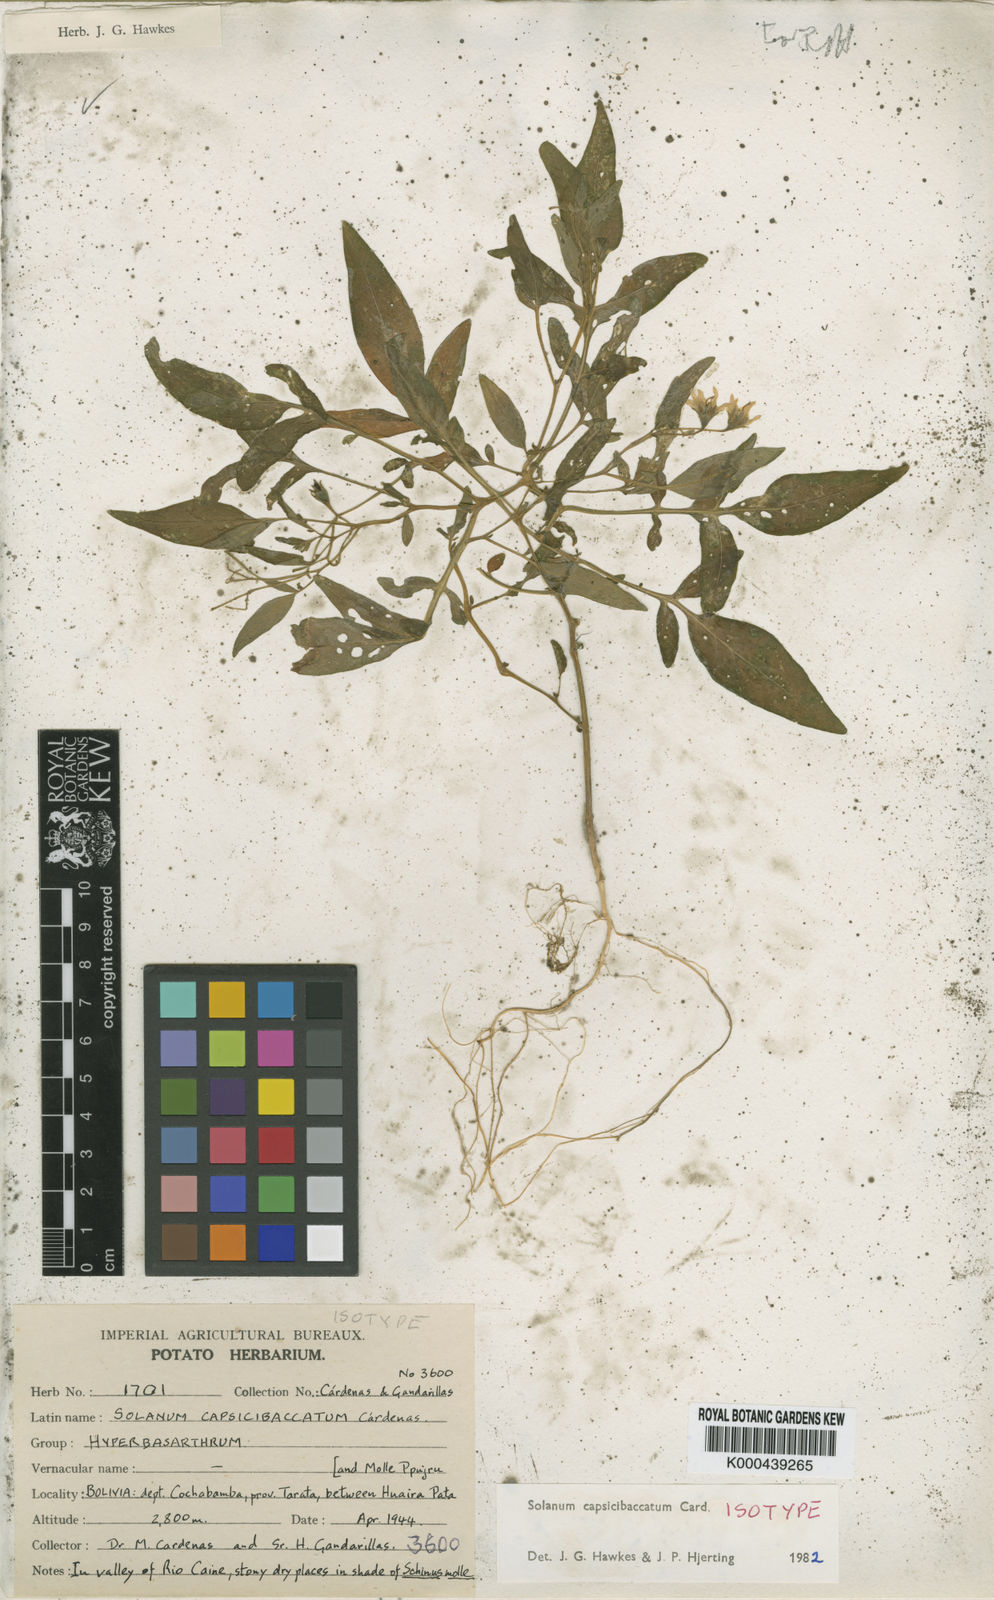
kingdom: Plantae
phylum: Tracheophyta
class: Magnoliopsida
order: Solanales
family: Solanaceae
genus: Solanum
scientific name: Solanum
